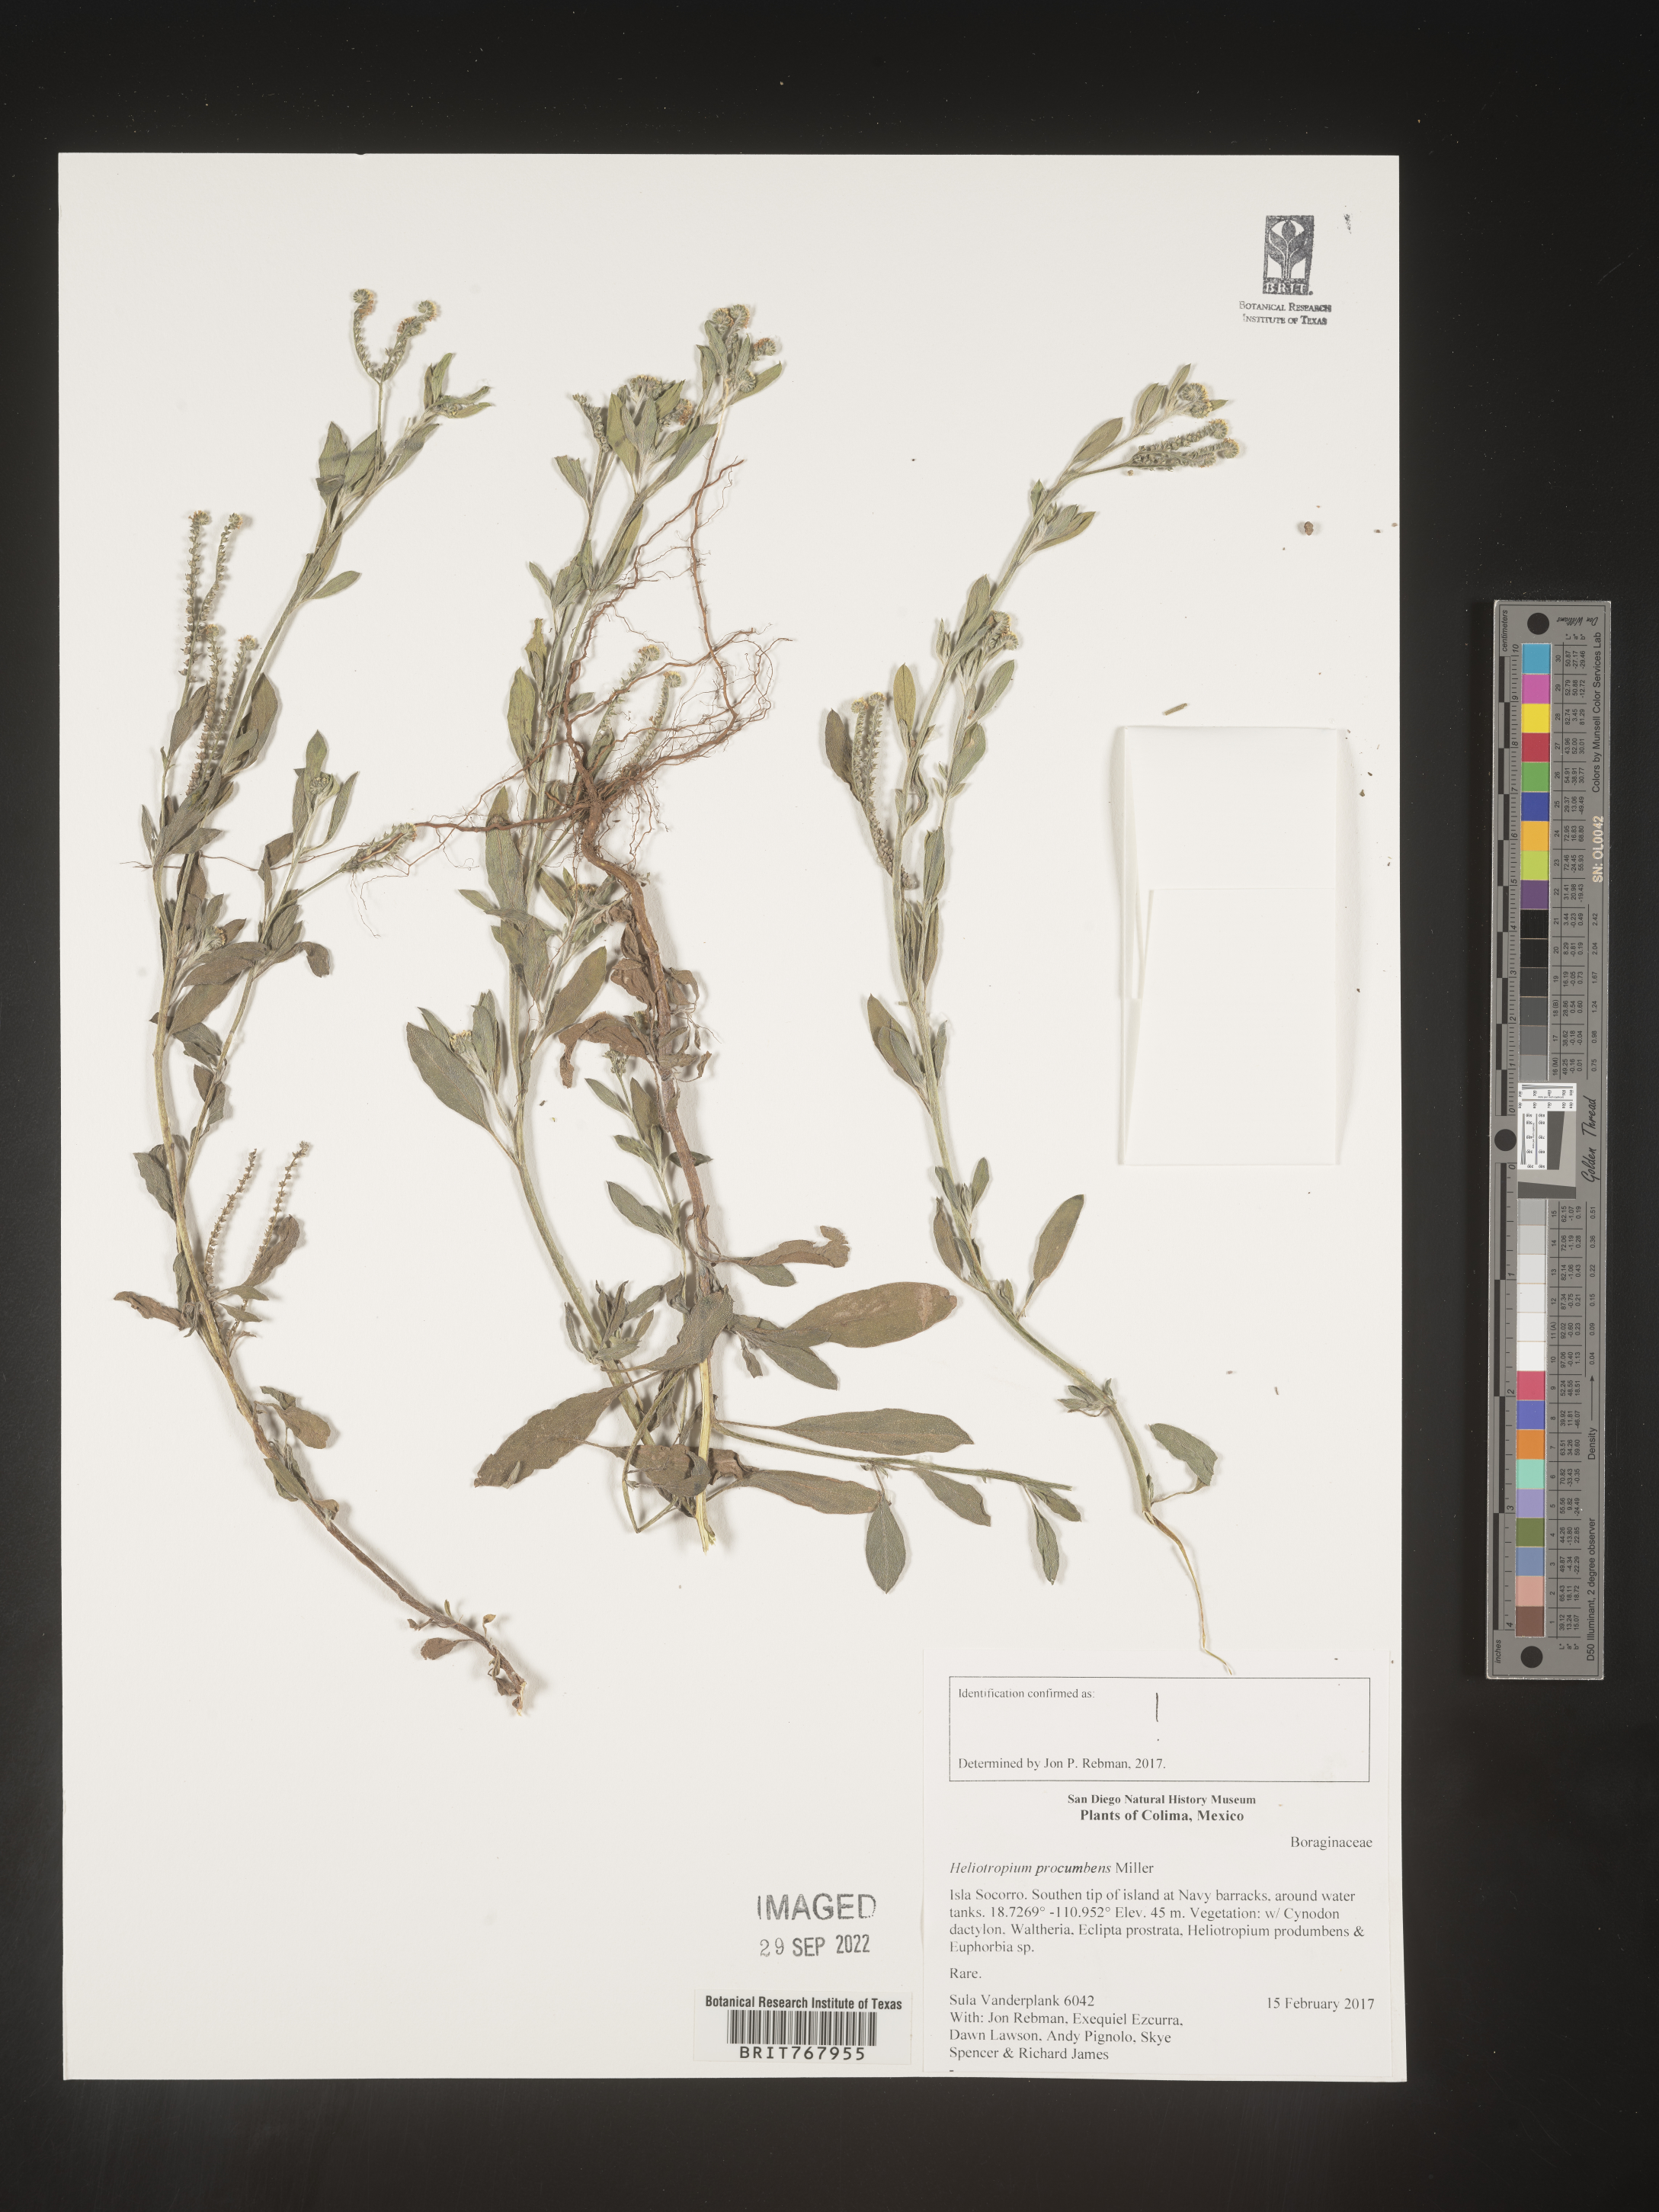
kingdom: Plantae
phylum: Tracheophyta
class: Magnoliopsida
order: Boraginales
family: Heliotropiaceae
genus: Heliotropium
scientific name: Heliotropium
